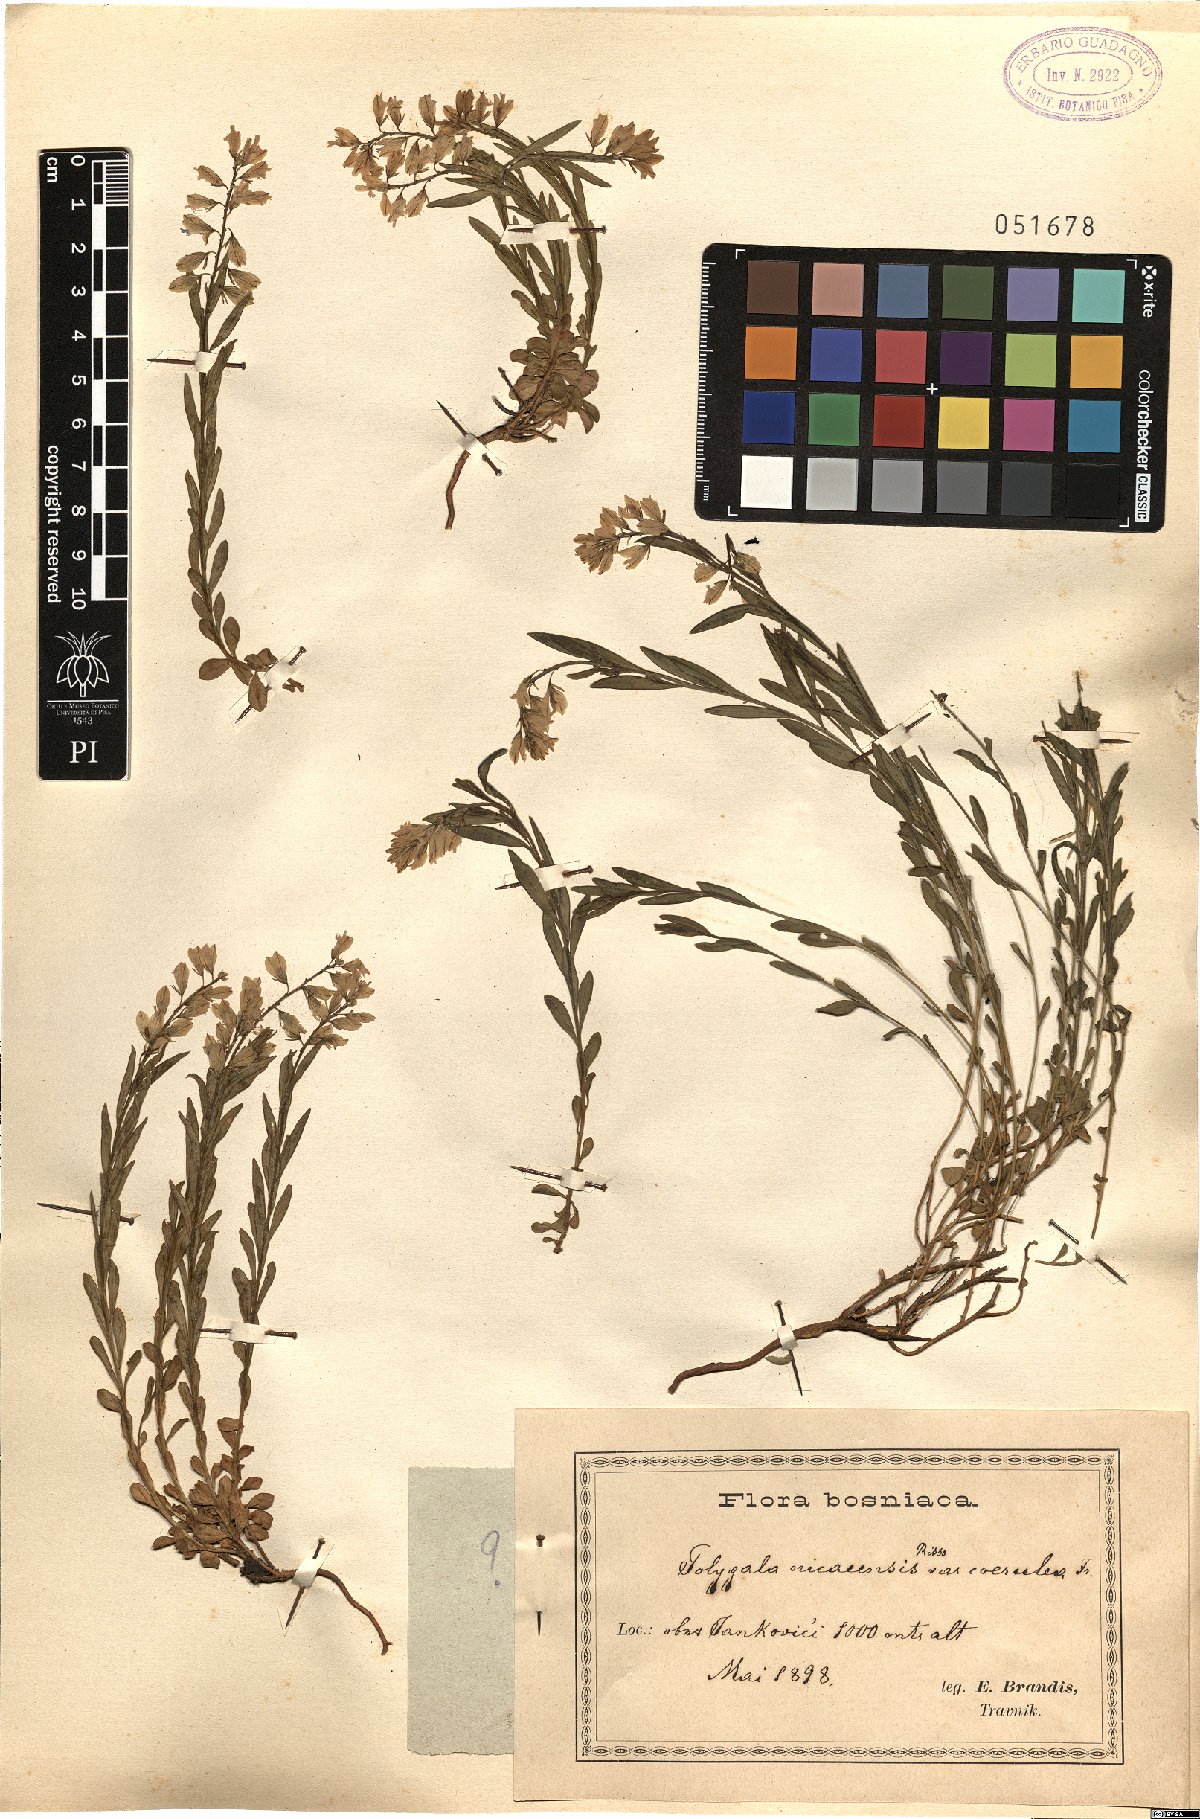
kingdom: Plantae
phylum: Tracheophyta
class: Magnoliopsida
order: Fabales
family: Polygalaceae
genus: Polygala
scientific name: Polygala pedemontana
